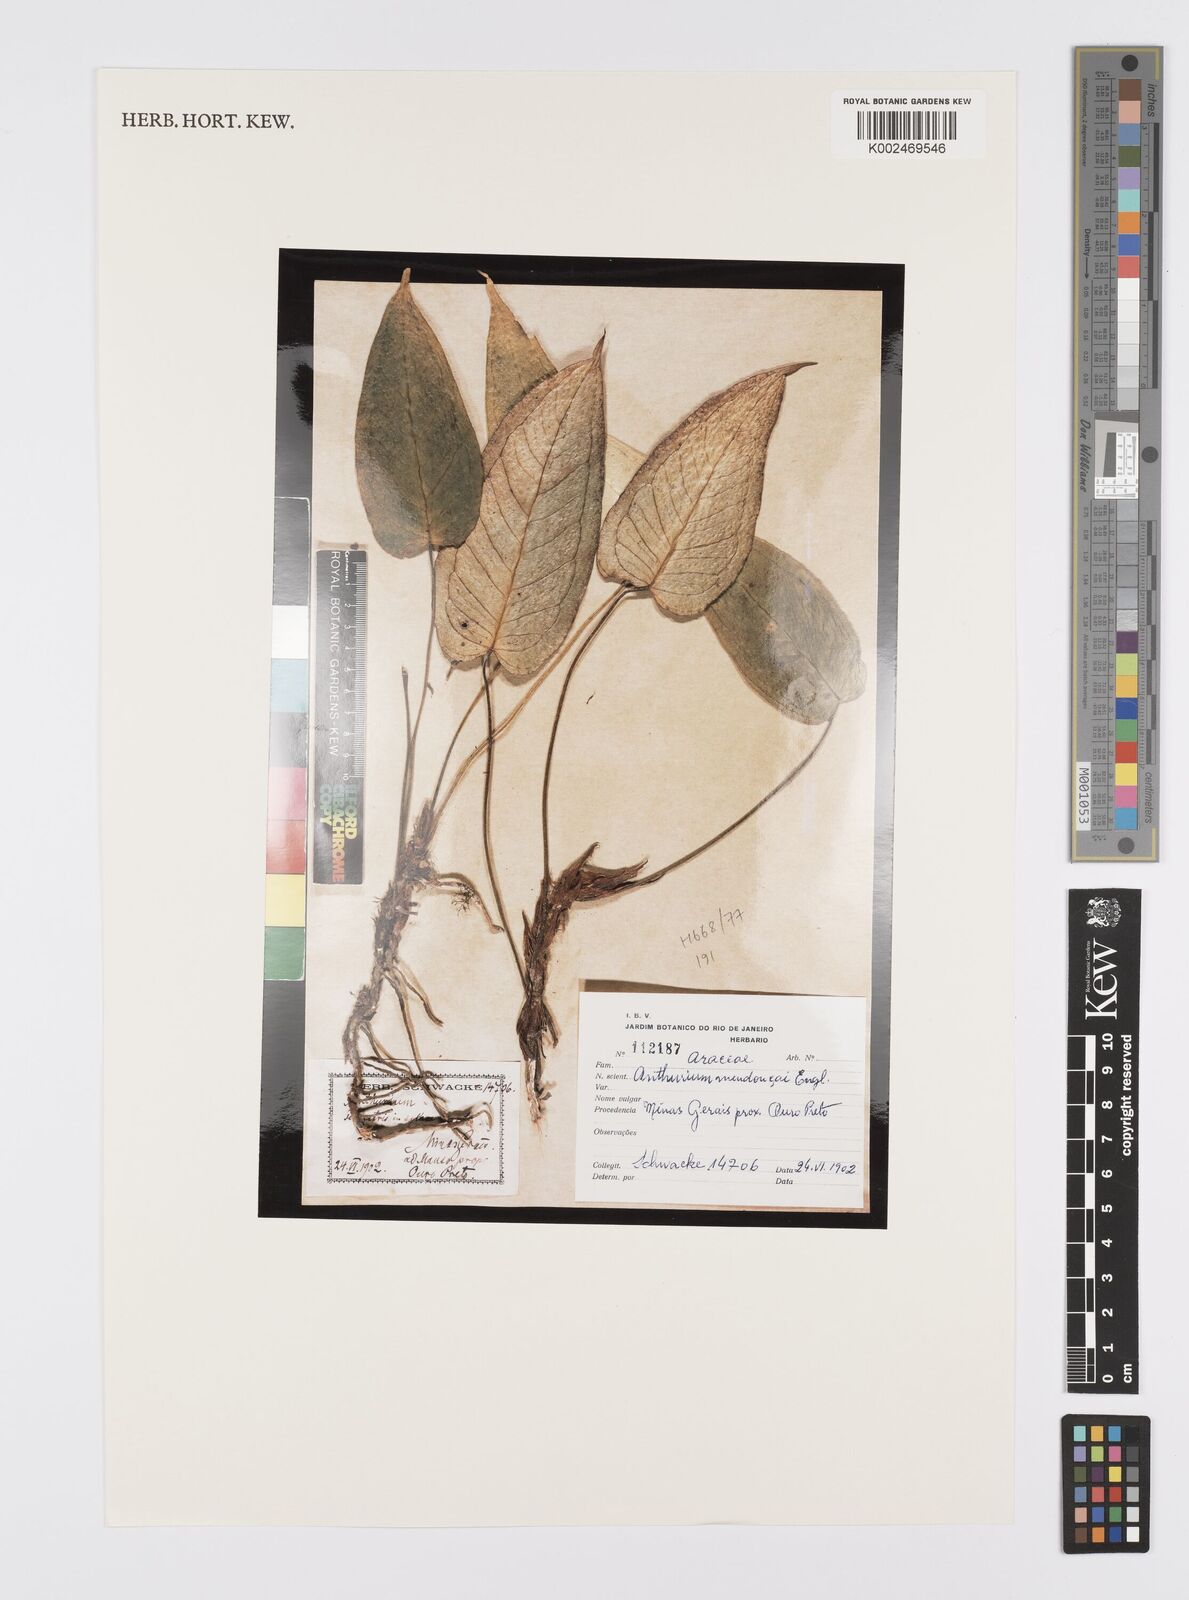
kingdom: Plantae
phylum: Tracheophyta
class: Liliopsida
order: Alismatales
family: Araceae
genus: Anthurium
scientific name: Anthurium parvum
